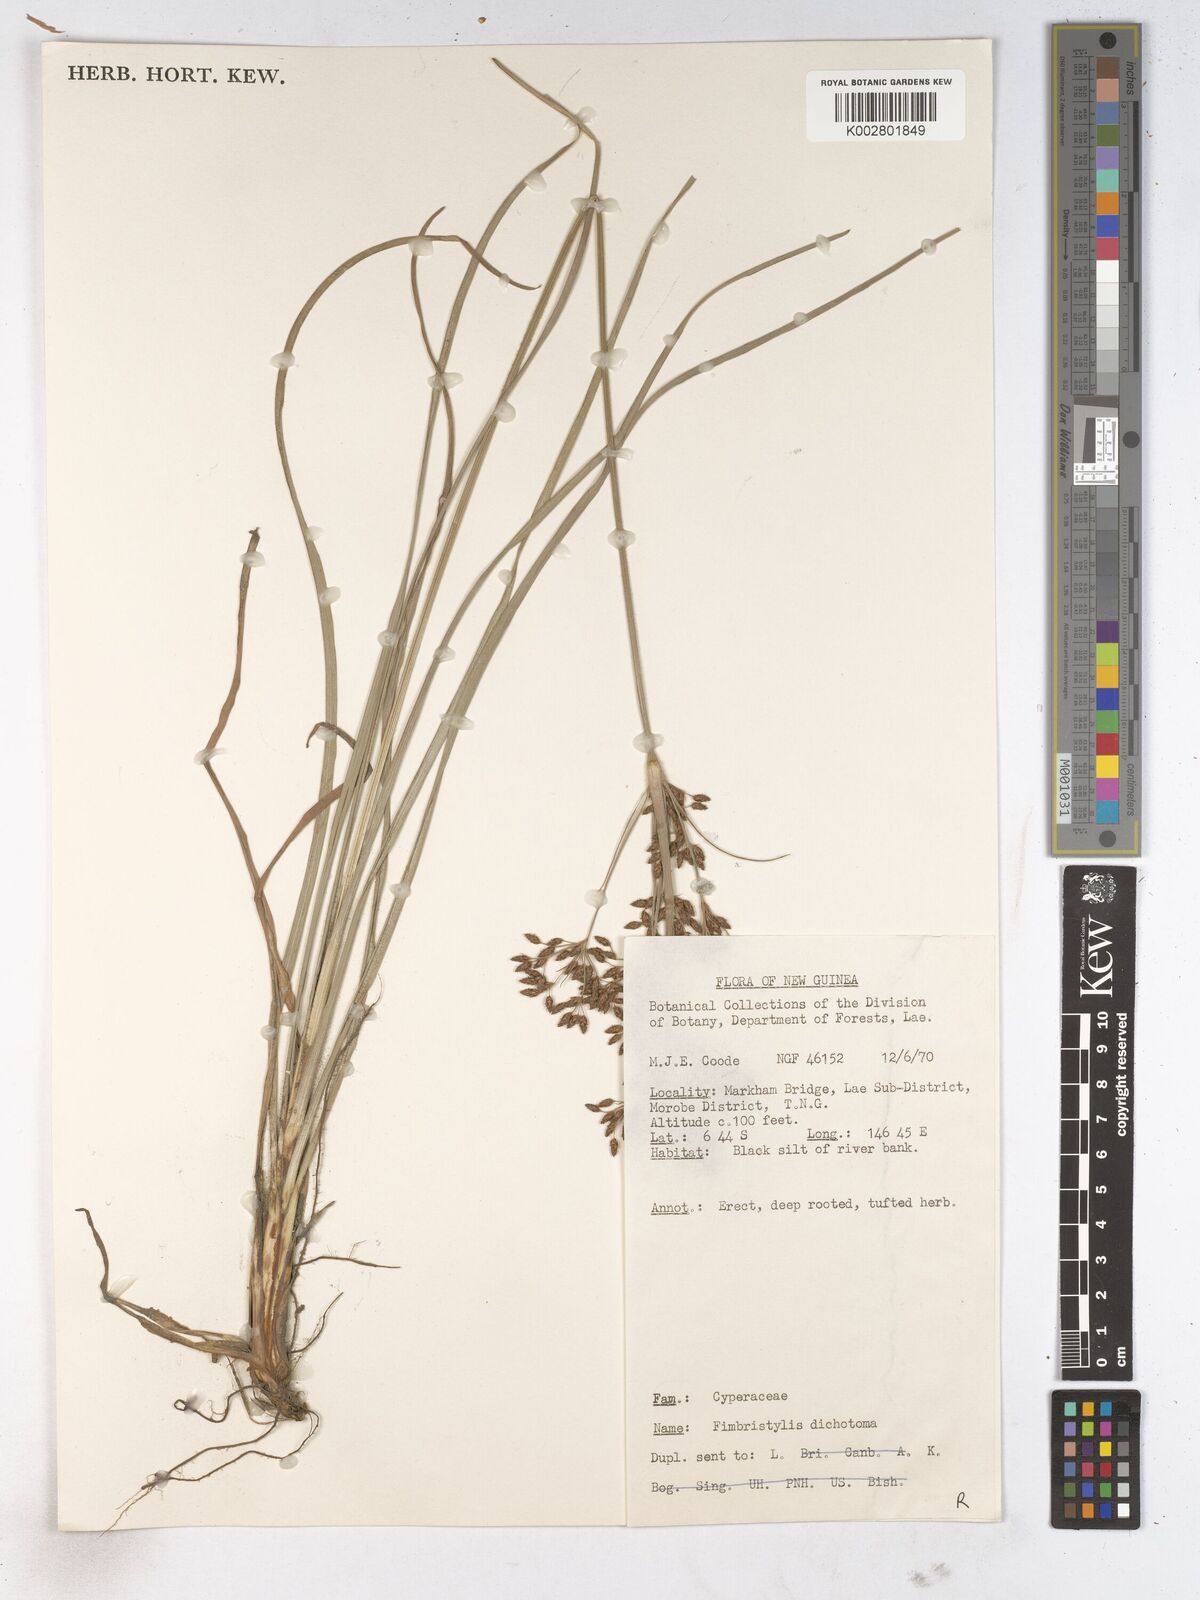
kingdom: Plantae
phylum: Tracheophyta
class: Liliopsida
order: Poales
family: Cyperaceae
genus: Fimbristylis
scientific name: Fimbristylis dichotoma
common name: Forked fimbry
